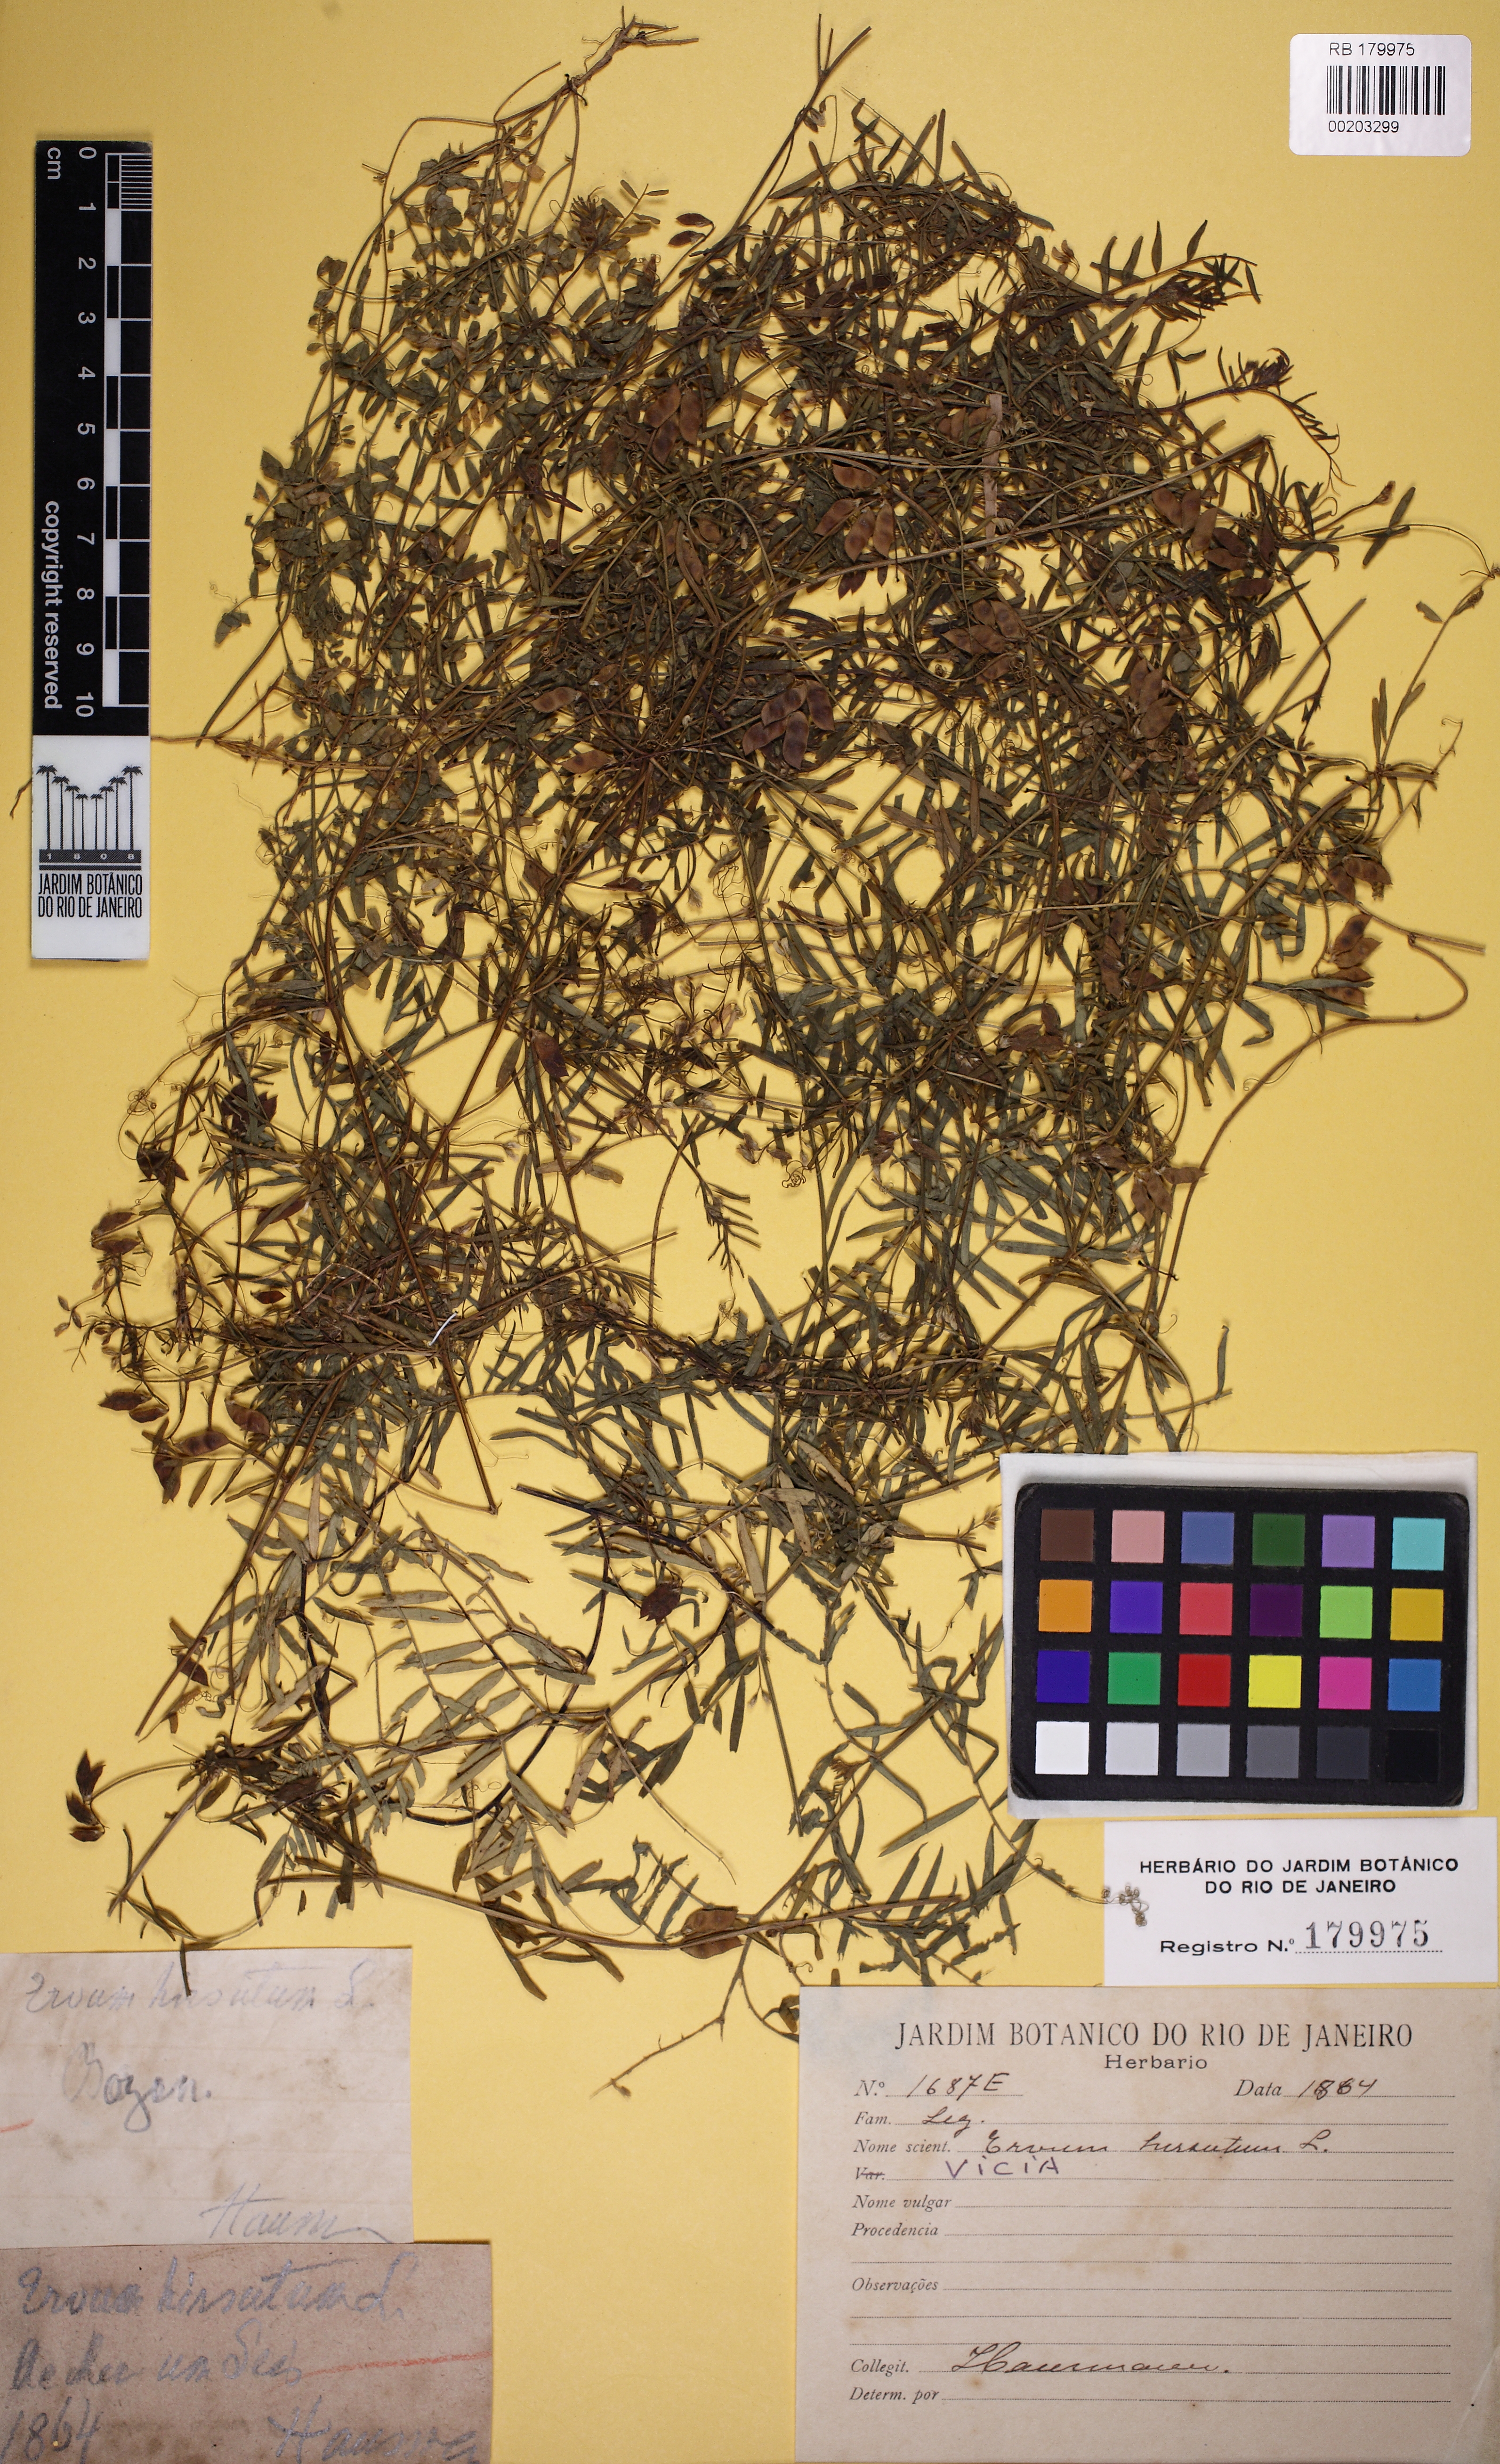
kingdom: Plantae
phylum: Tracheophyta
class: Magnoliopsida
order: Fabales
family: Fabaceae
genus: Vicia
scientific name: Vicia
